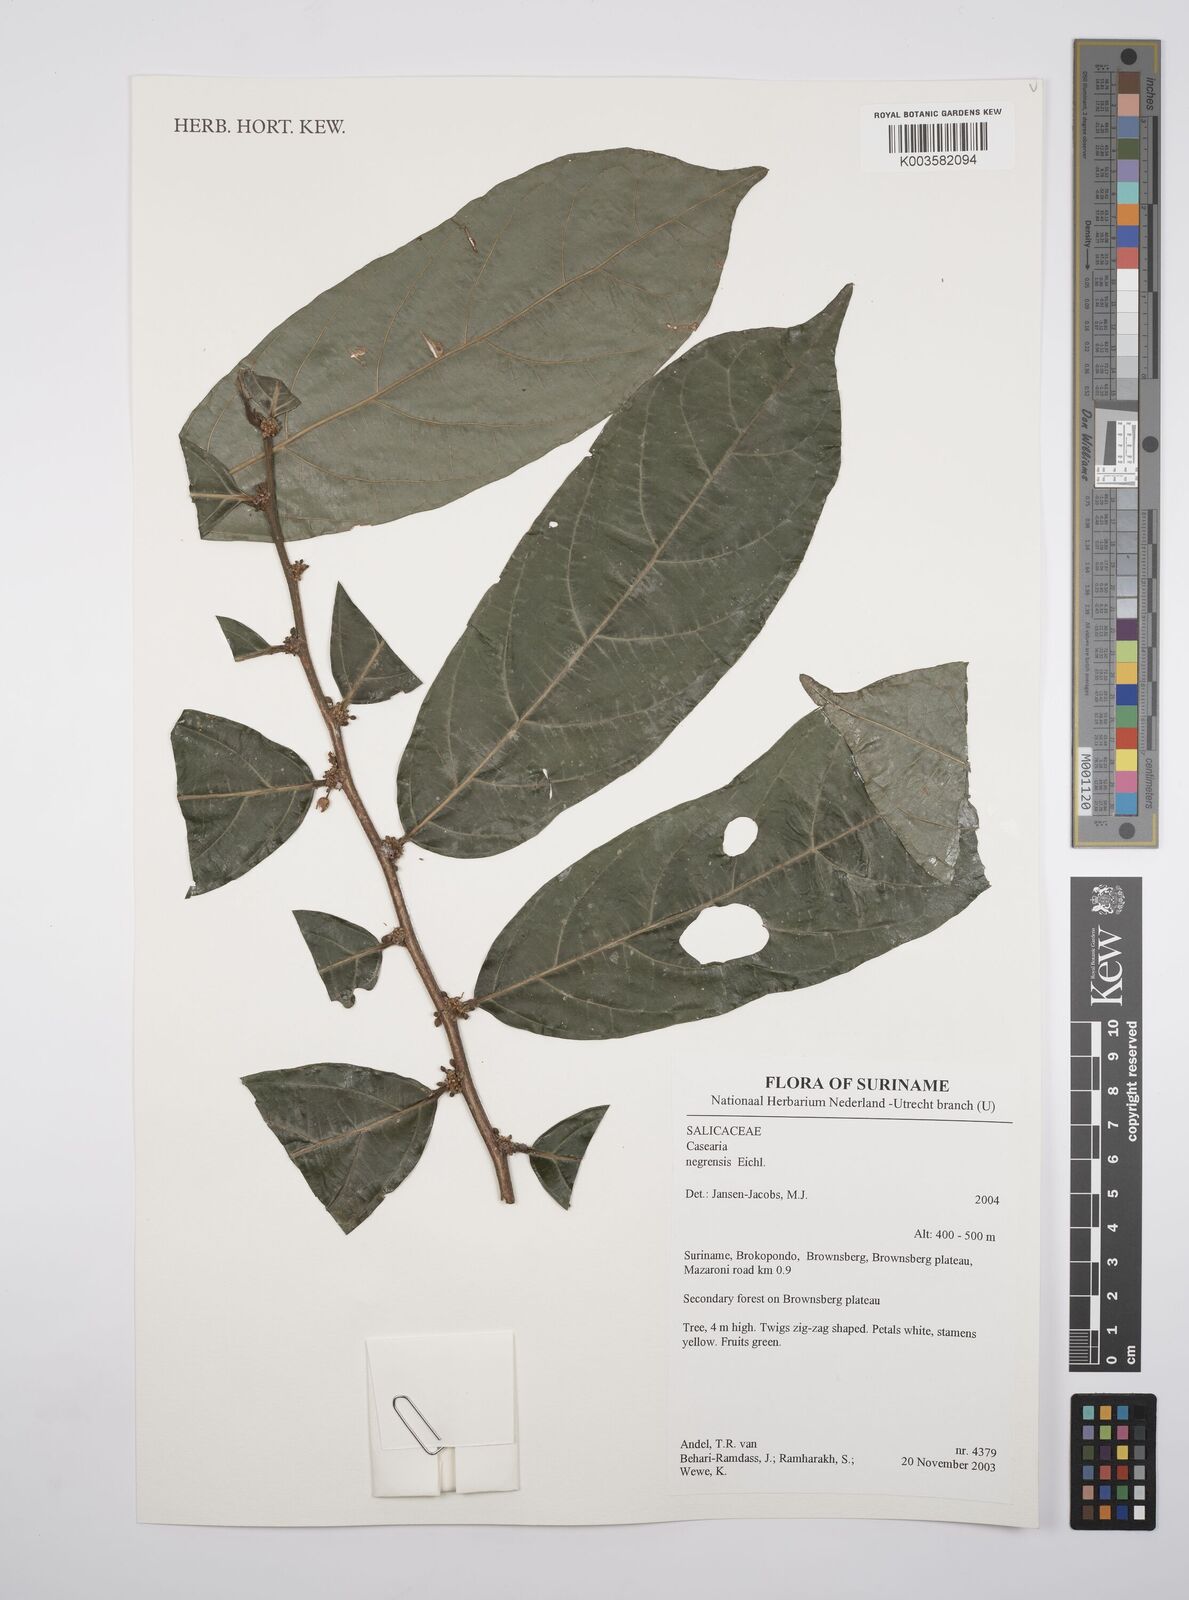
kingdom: Plantae
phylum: Tracheophyta
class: Magnoliopsida
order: Malpighiales
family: Salicaceae
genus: Casearia
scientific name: Casearia negrensis
